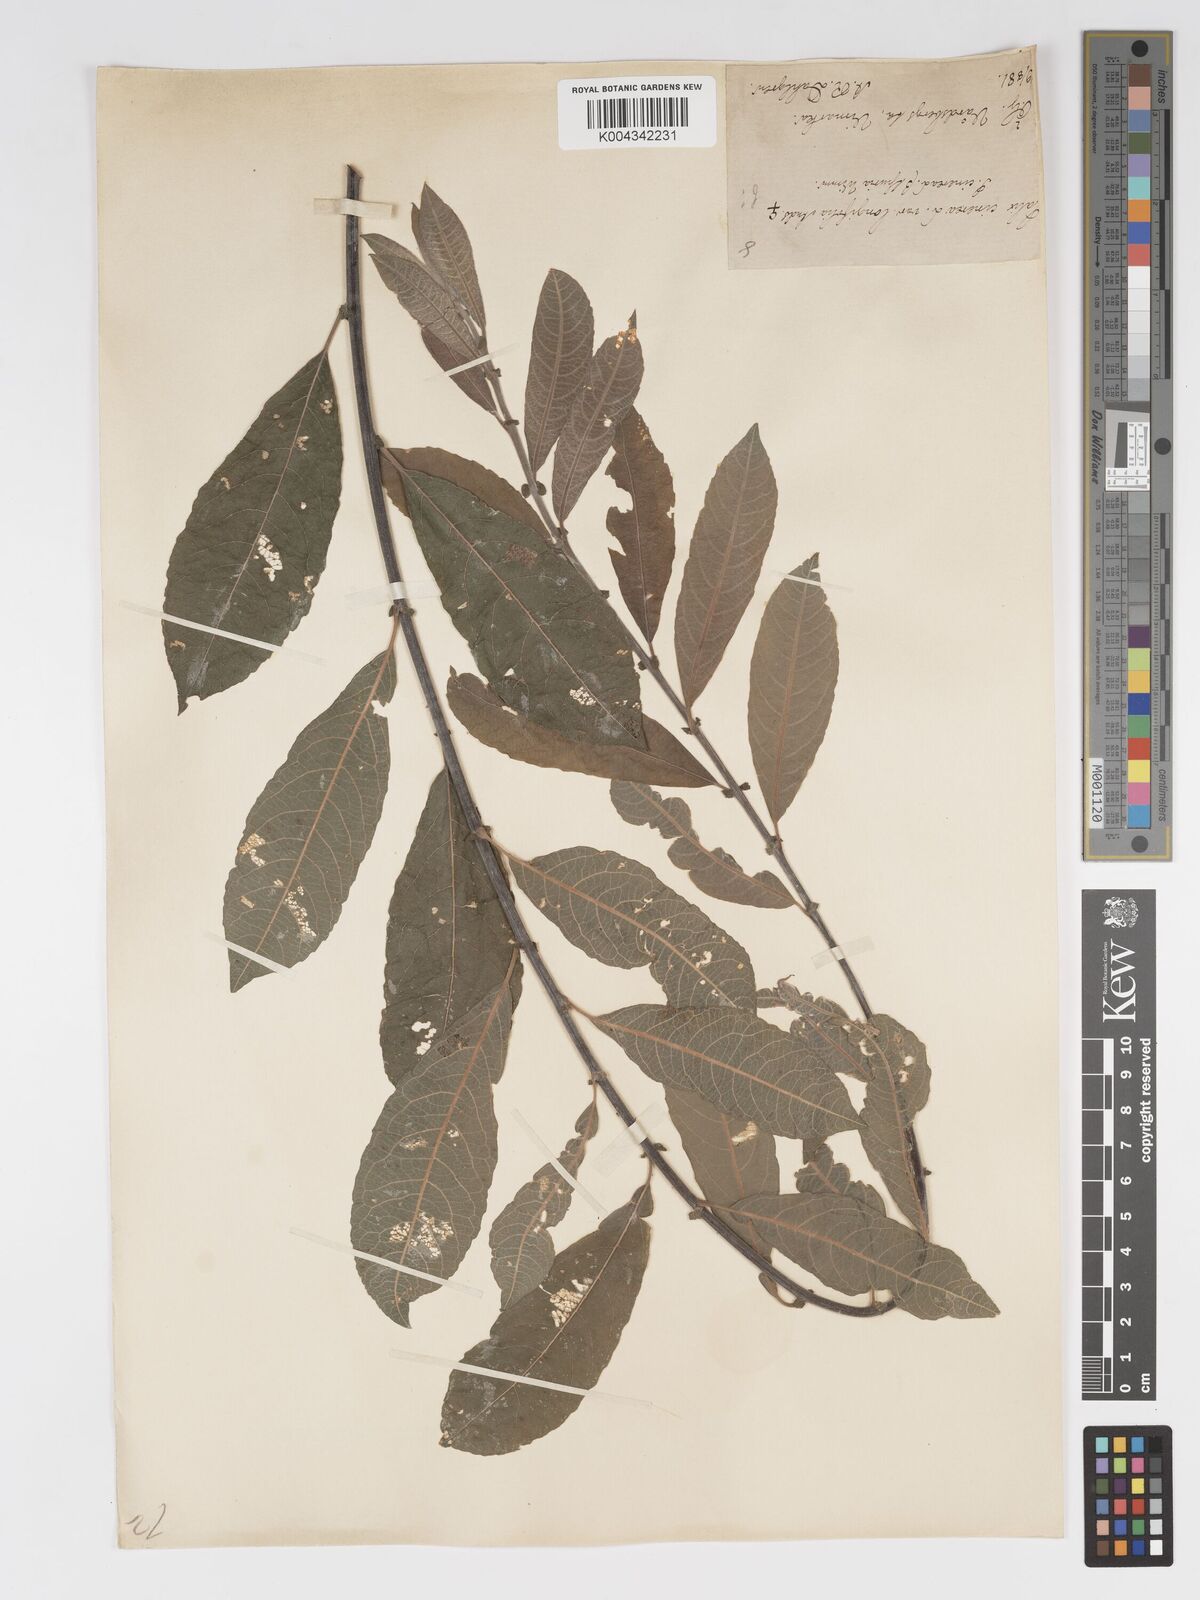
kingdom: Plantae
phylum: Tracheophyta
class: Magnoliopsida
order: Malpighiales
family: Salicaceae
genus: Salix
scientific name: Salix
